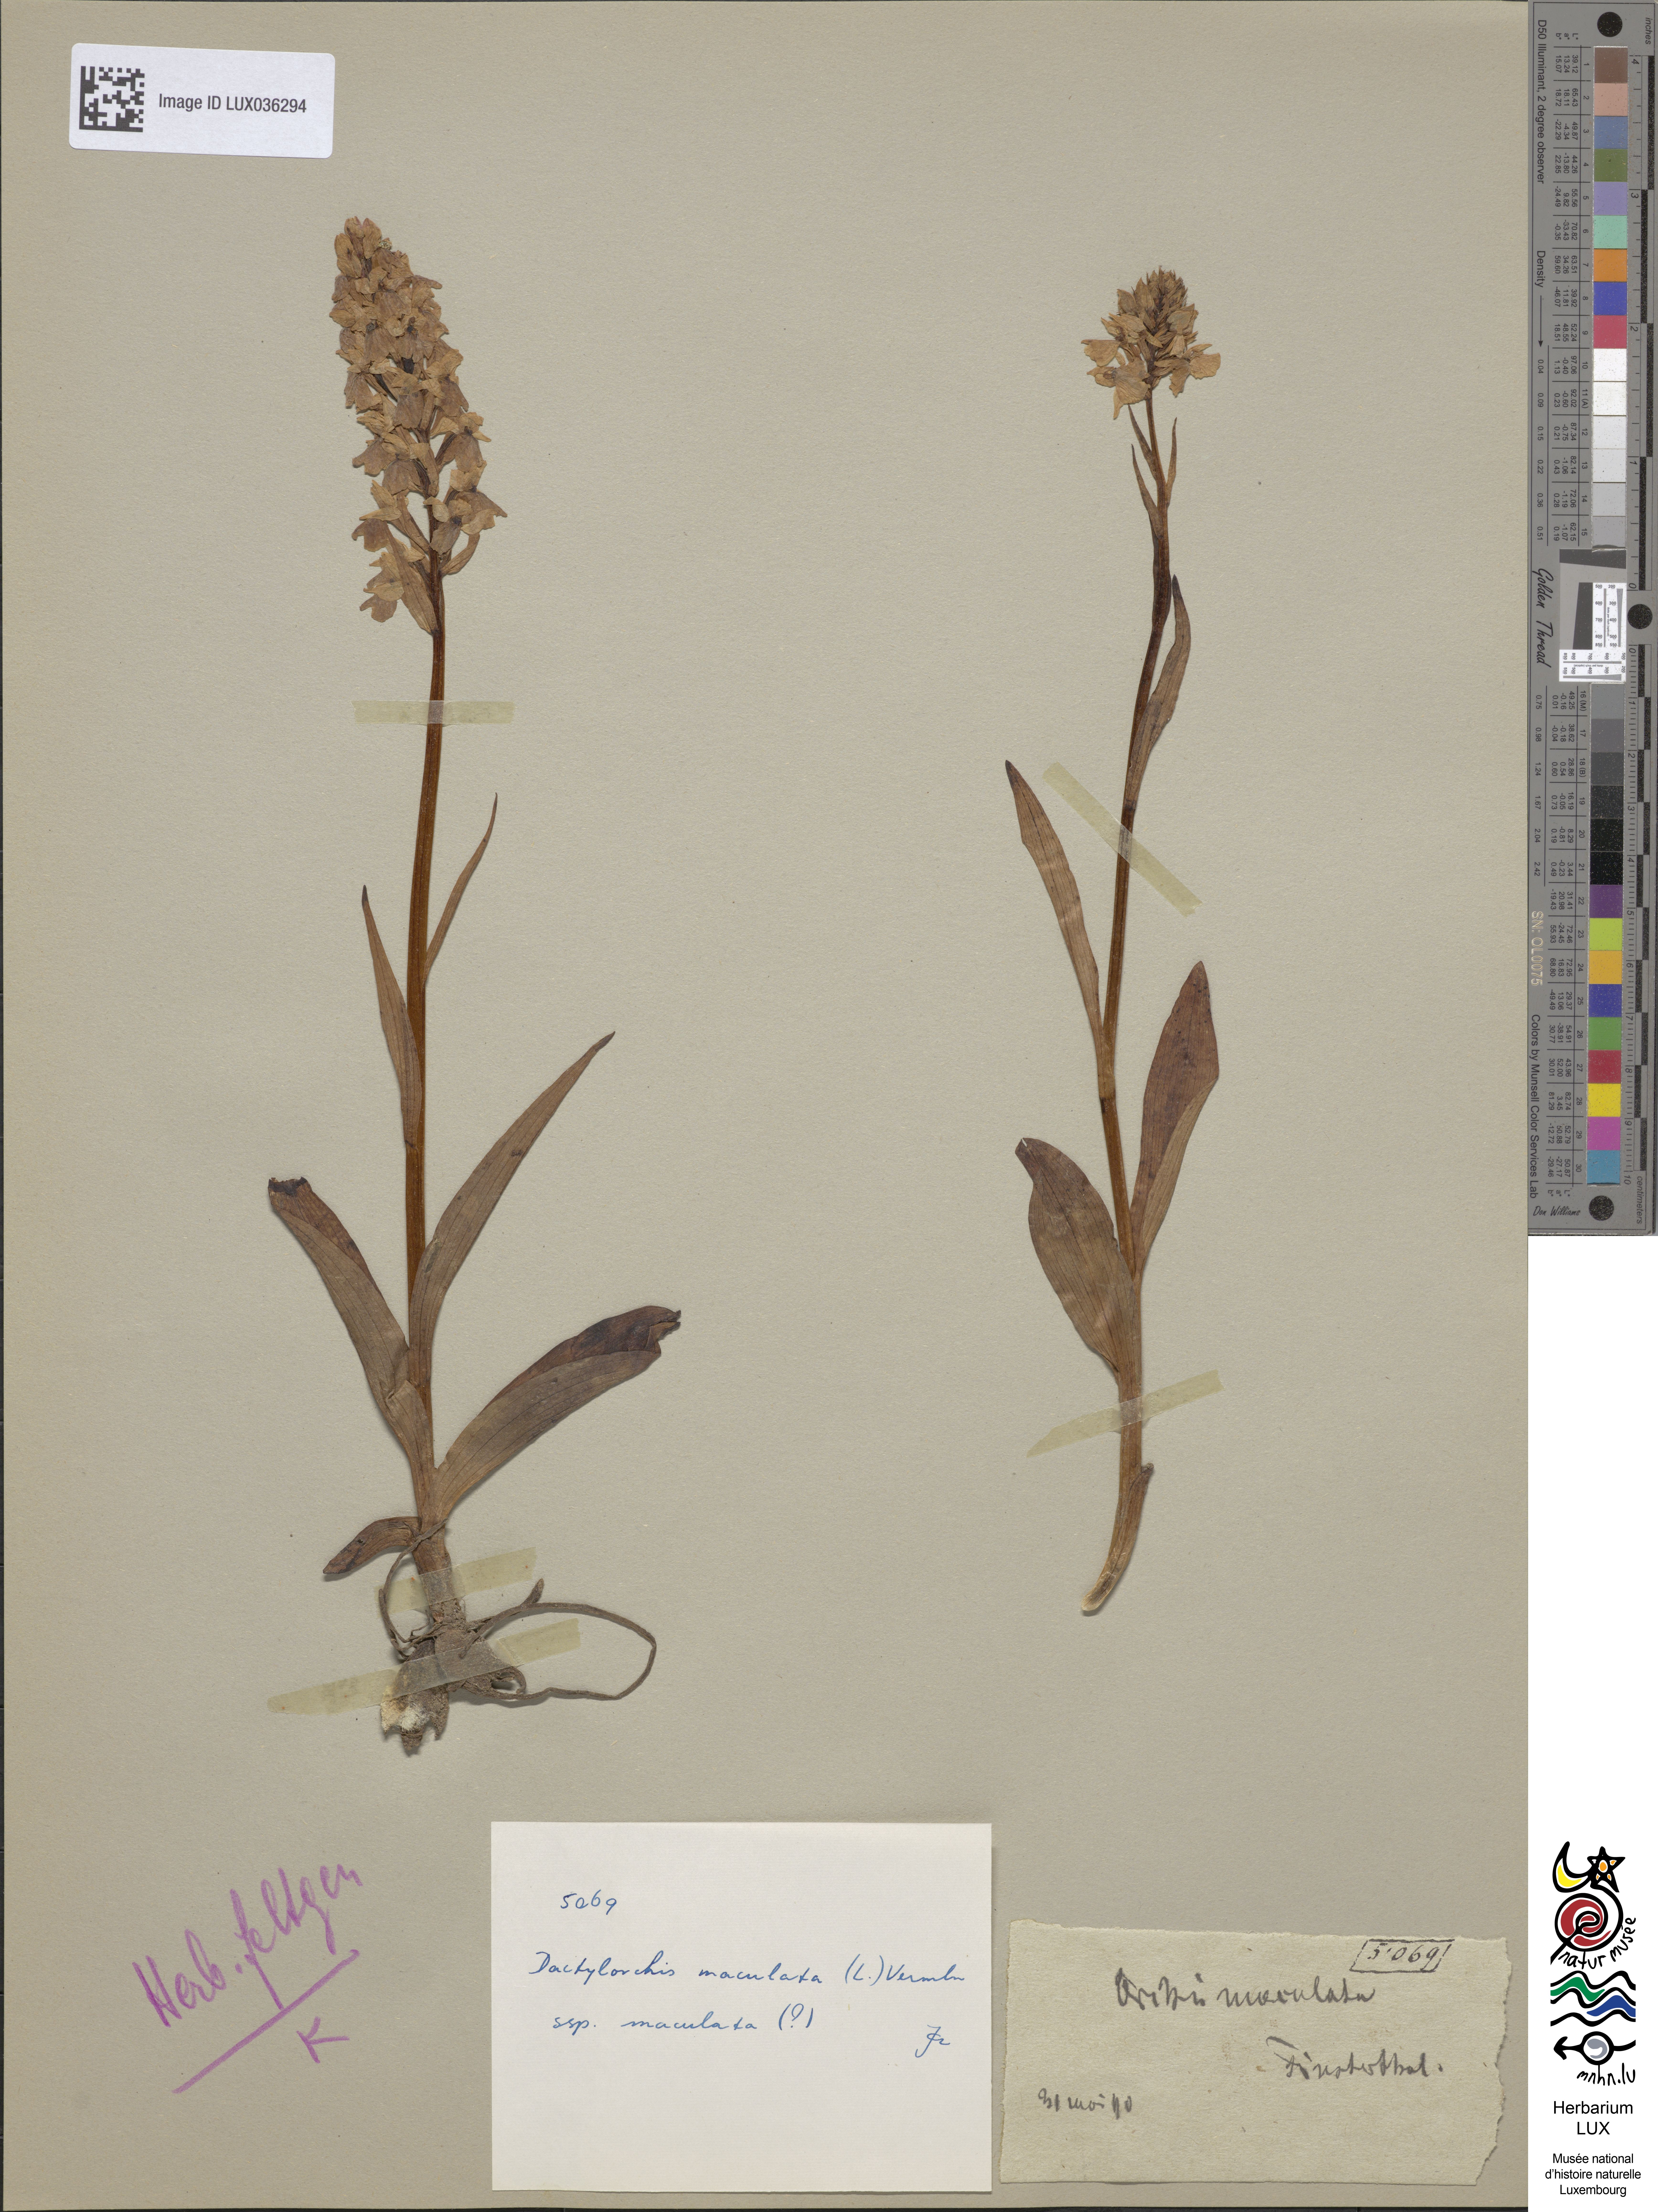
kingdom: Plantae
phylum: Tracheophyta
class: Liliopsida
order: Asparagales
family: Orchidaceae
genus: Dactylorhiza
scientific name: Dactylorhiza maculata
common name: Heath spotted-orchid
